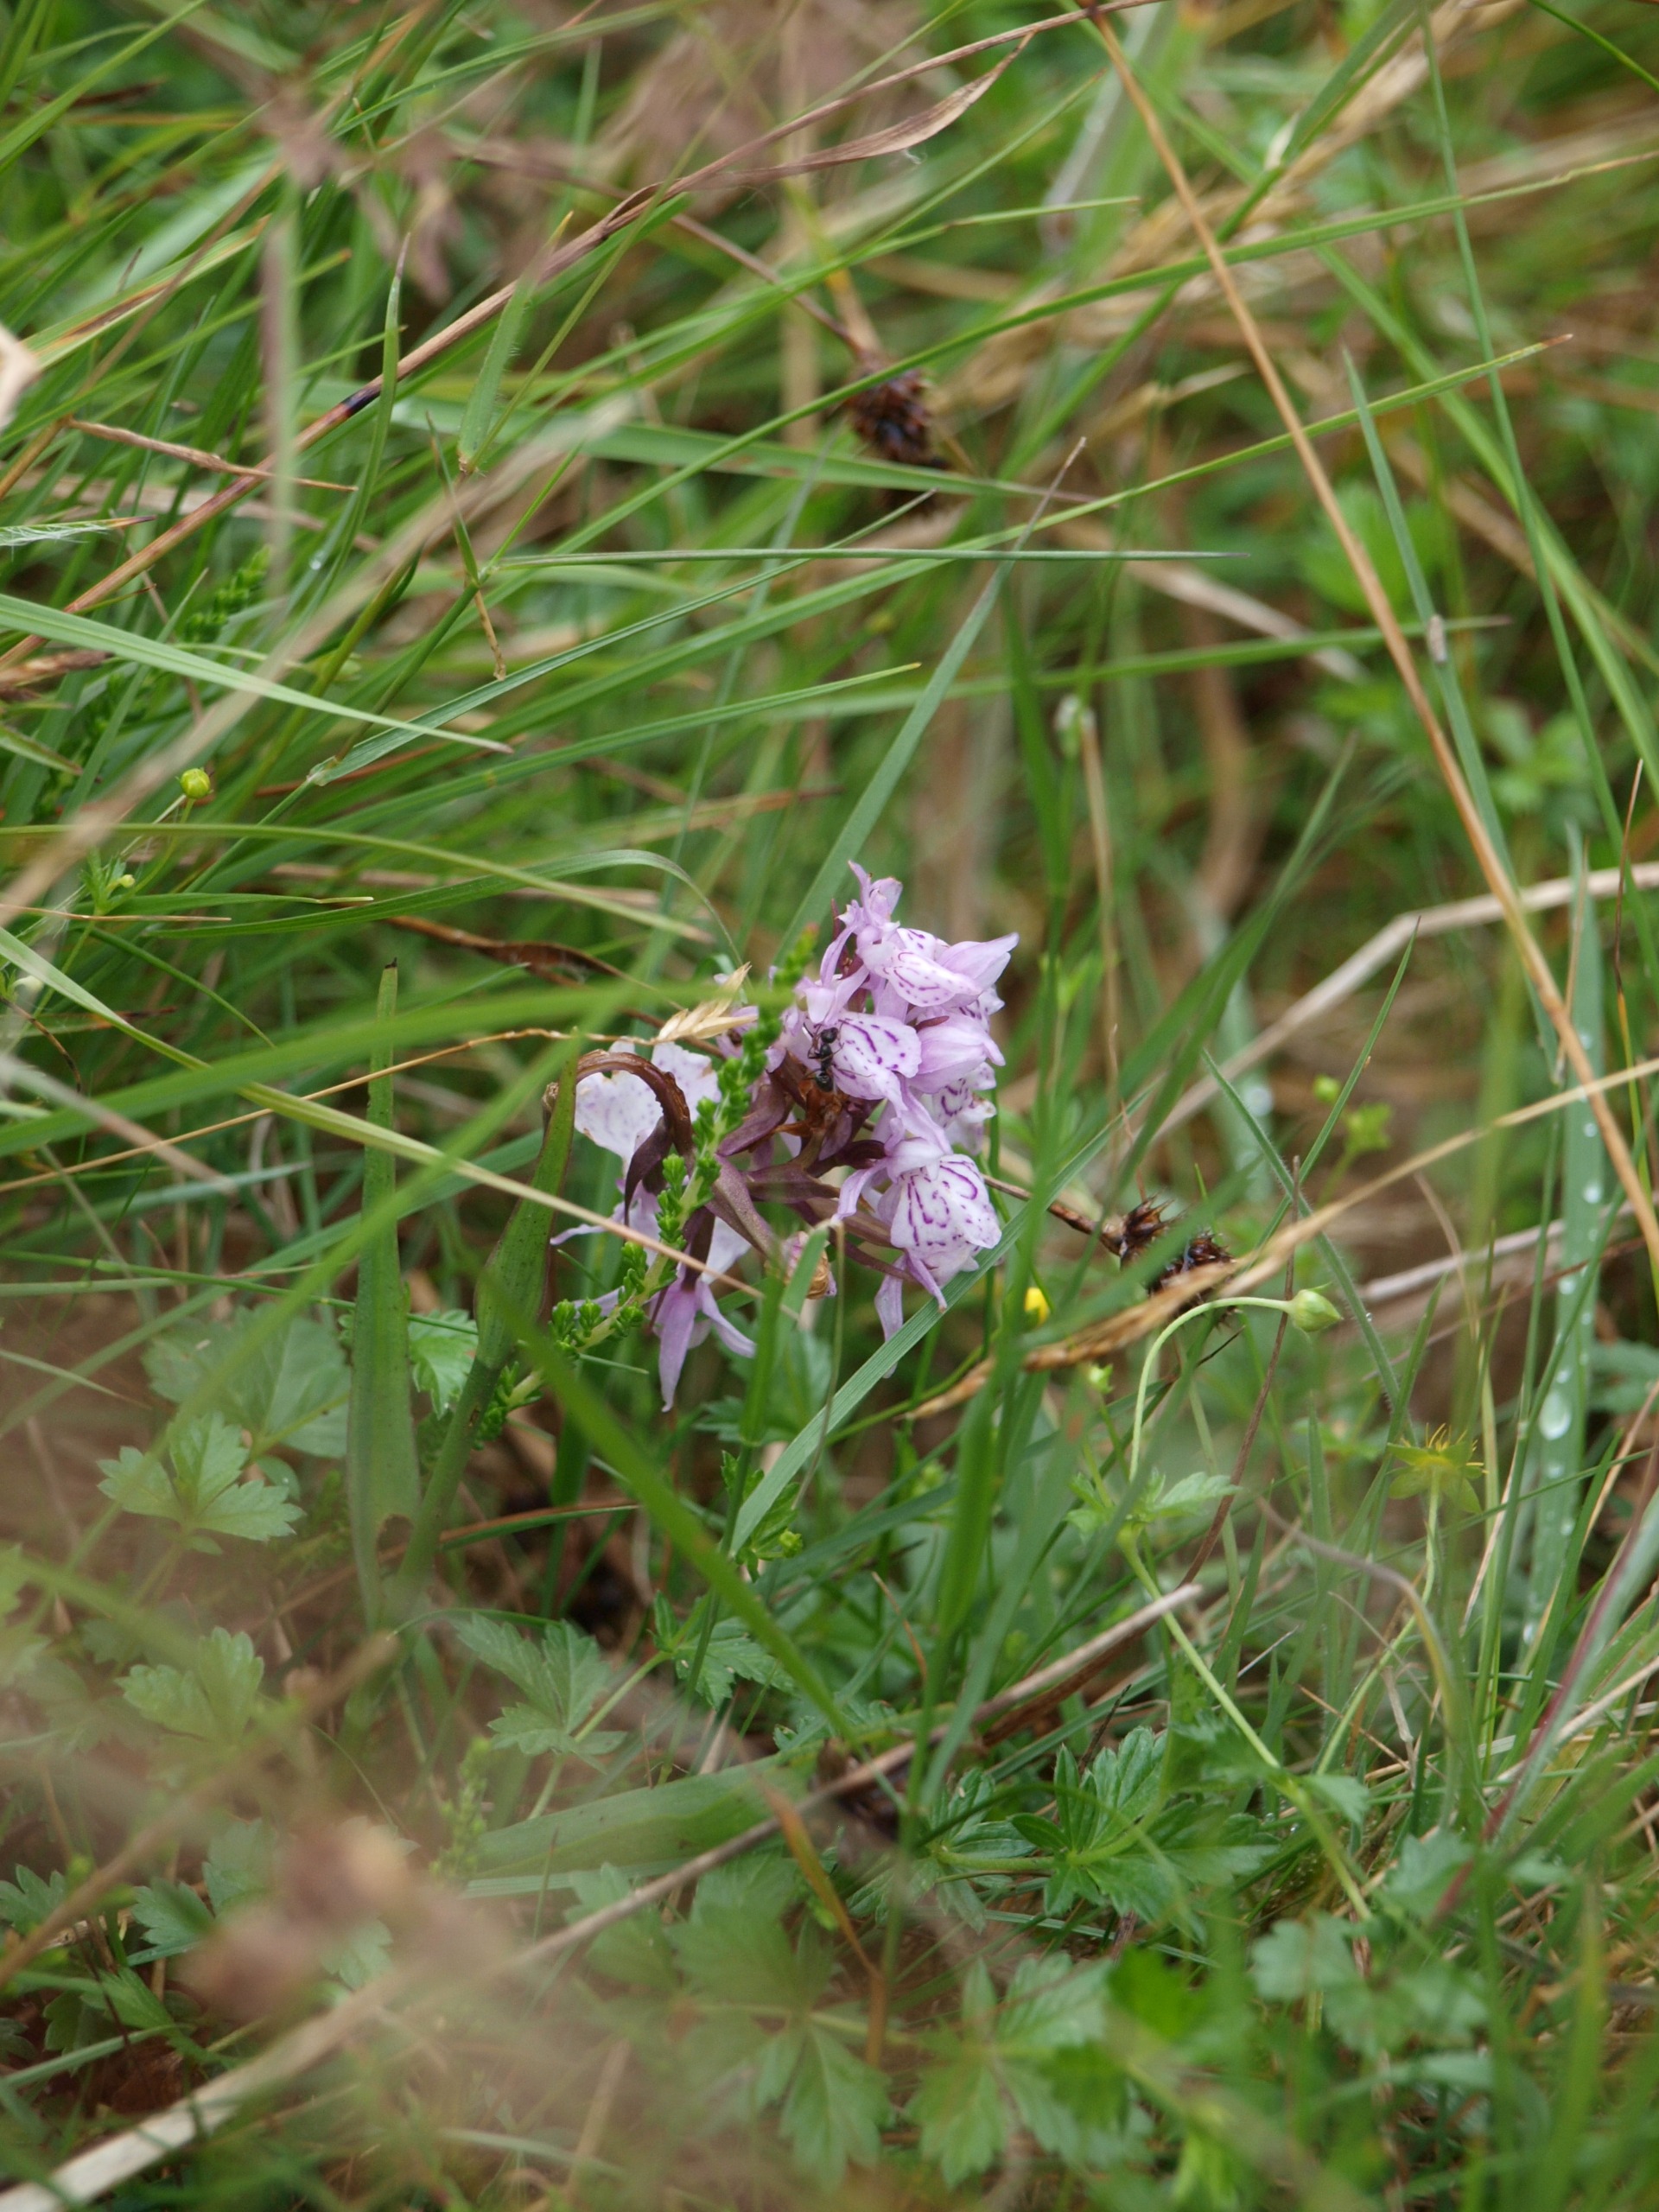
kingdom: Plantae
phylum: Tracheophyta
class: Liliopsida
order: Asparagales
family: Orchidaceae
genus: Dactylorhiza
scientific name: Dactylorhiza maculata
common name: Plettet gøgeurt (underart)
